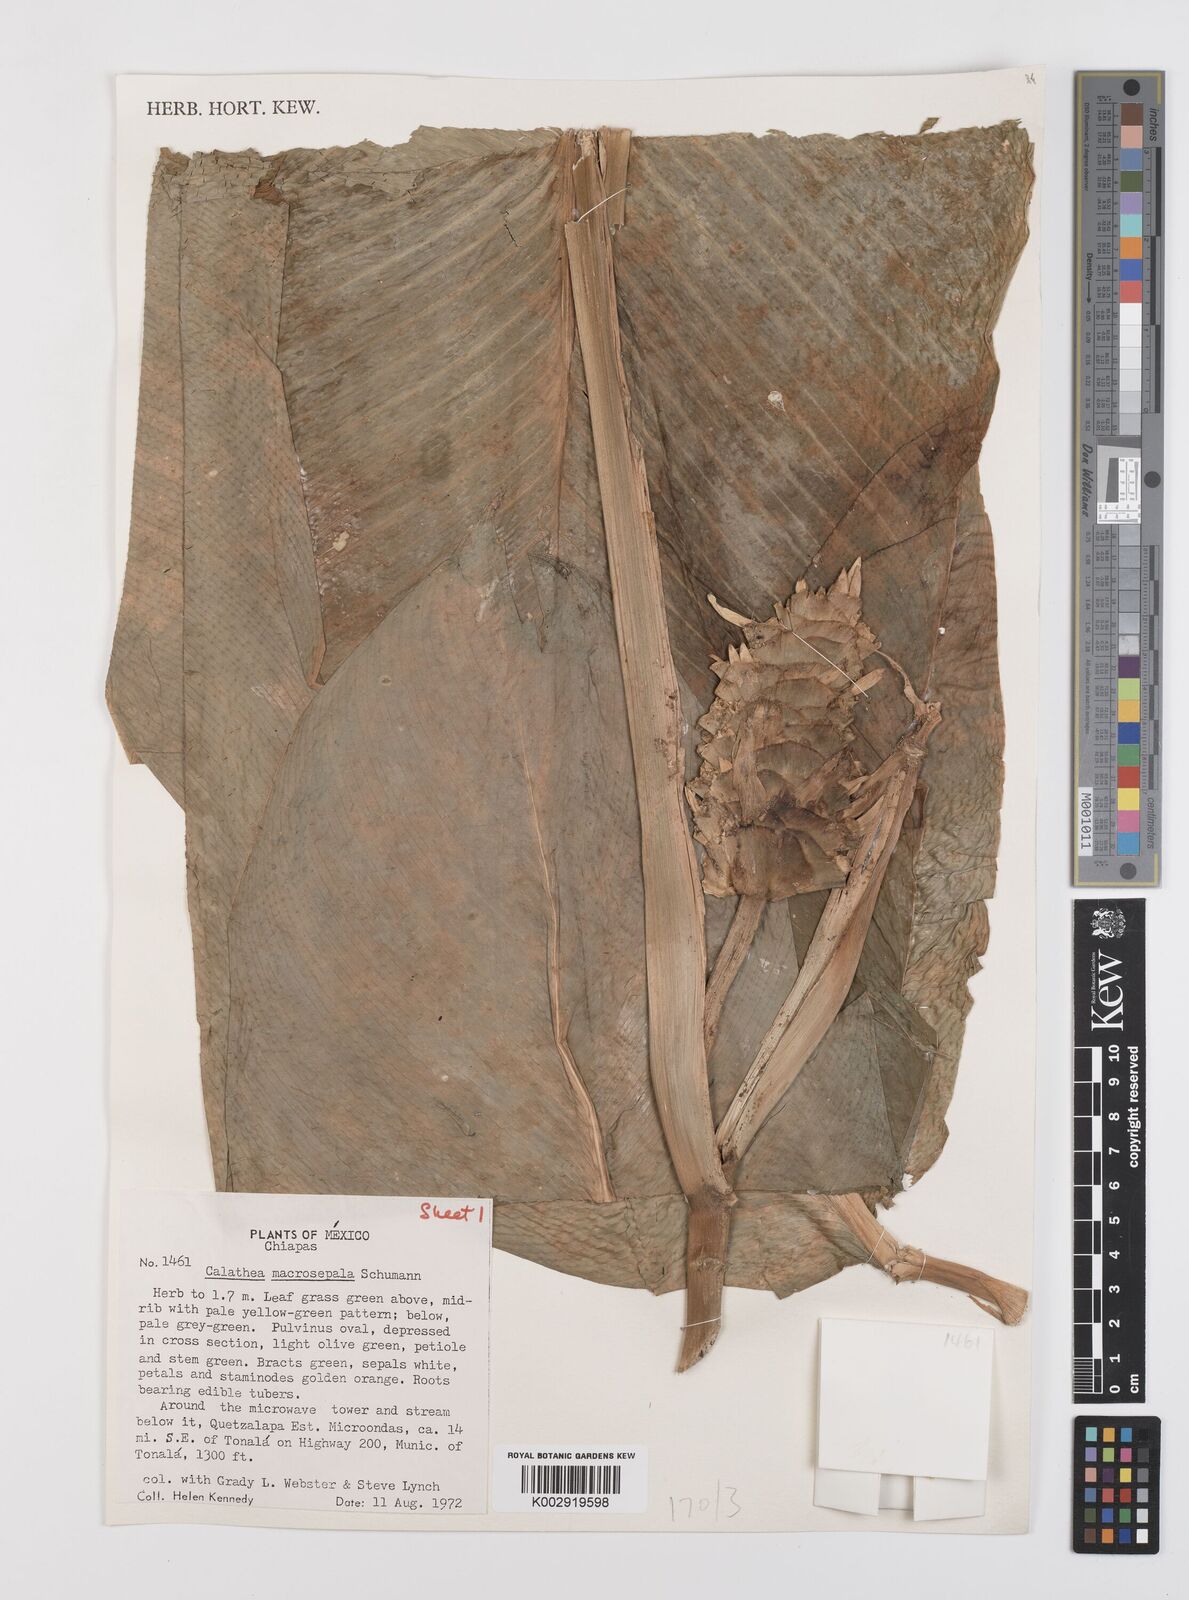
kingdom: Plantae
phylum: Tracheophyta
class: Liliopsida
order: Zingiberales
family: Marantaceae
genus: Goeppertia
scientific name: Goeppertia macrosepala
